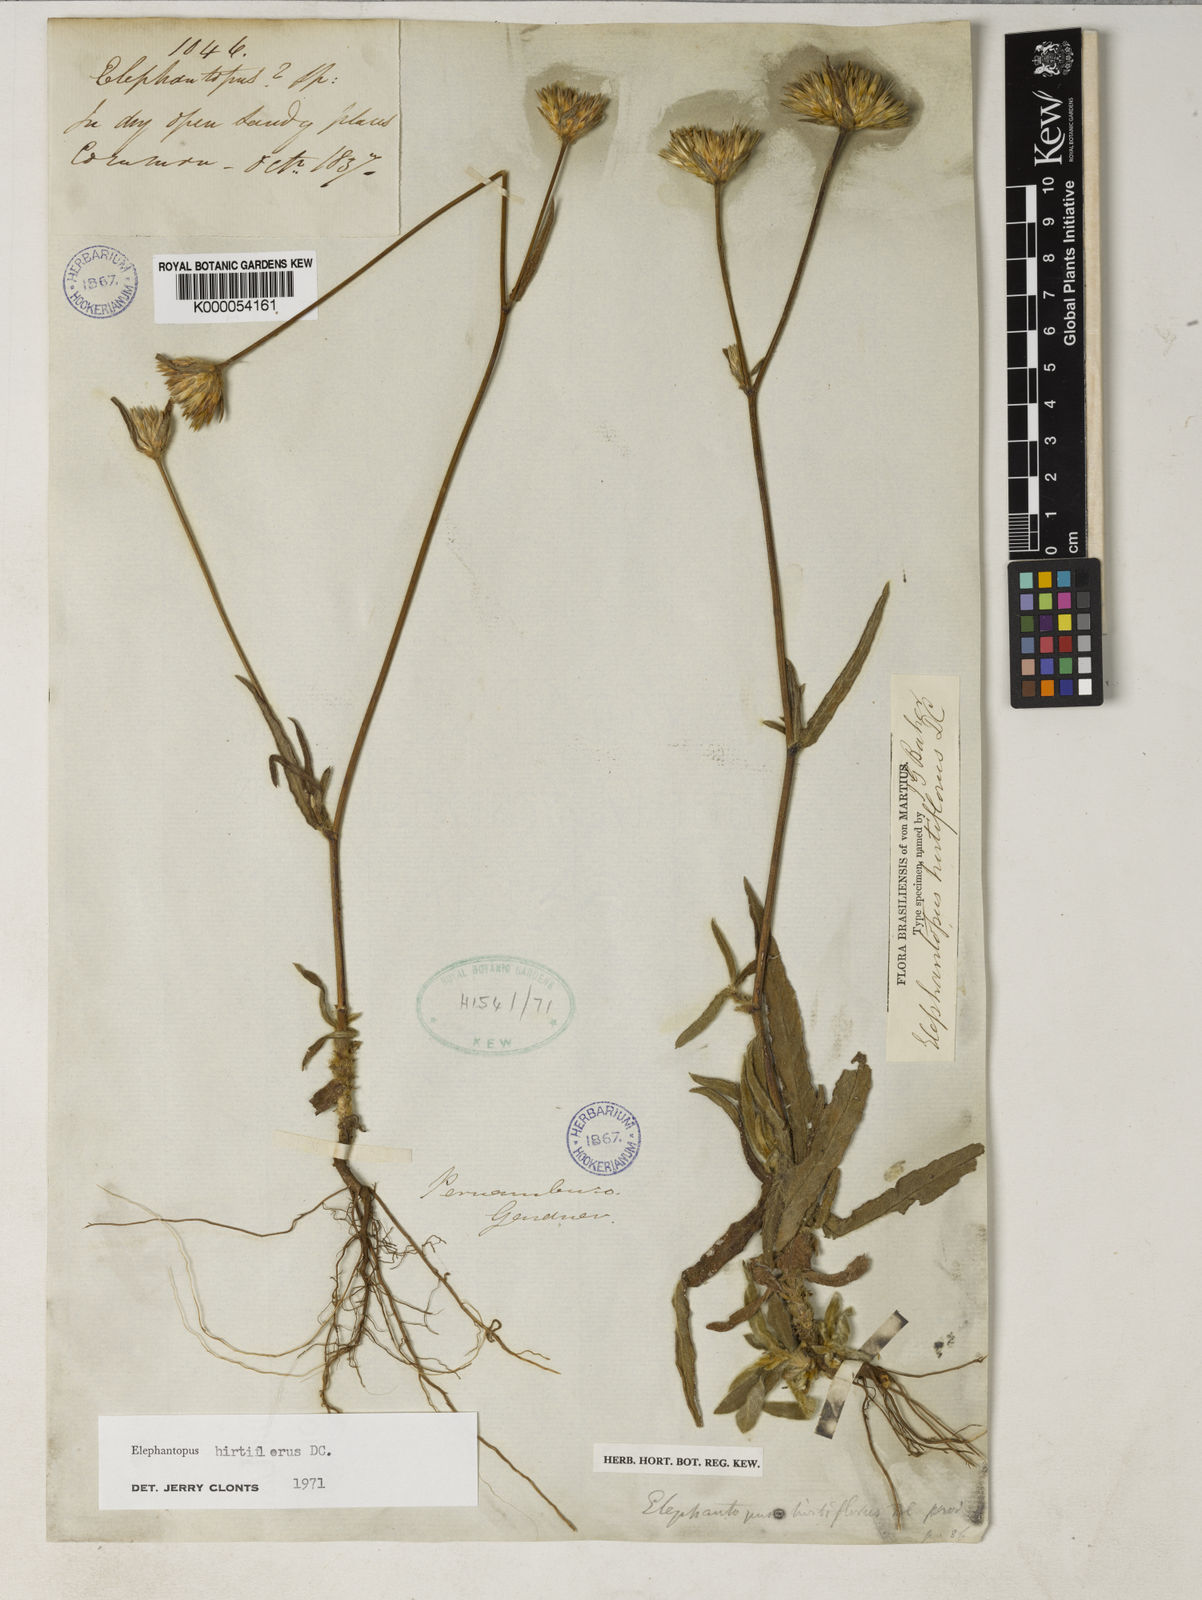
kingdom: Plantae
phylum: Tracheophyta
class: Magnoliopsida
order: Asterales
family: Asteraceae
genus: Elephantopus
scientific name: Elephantopus hirtiflorus
